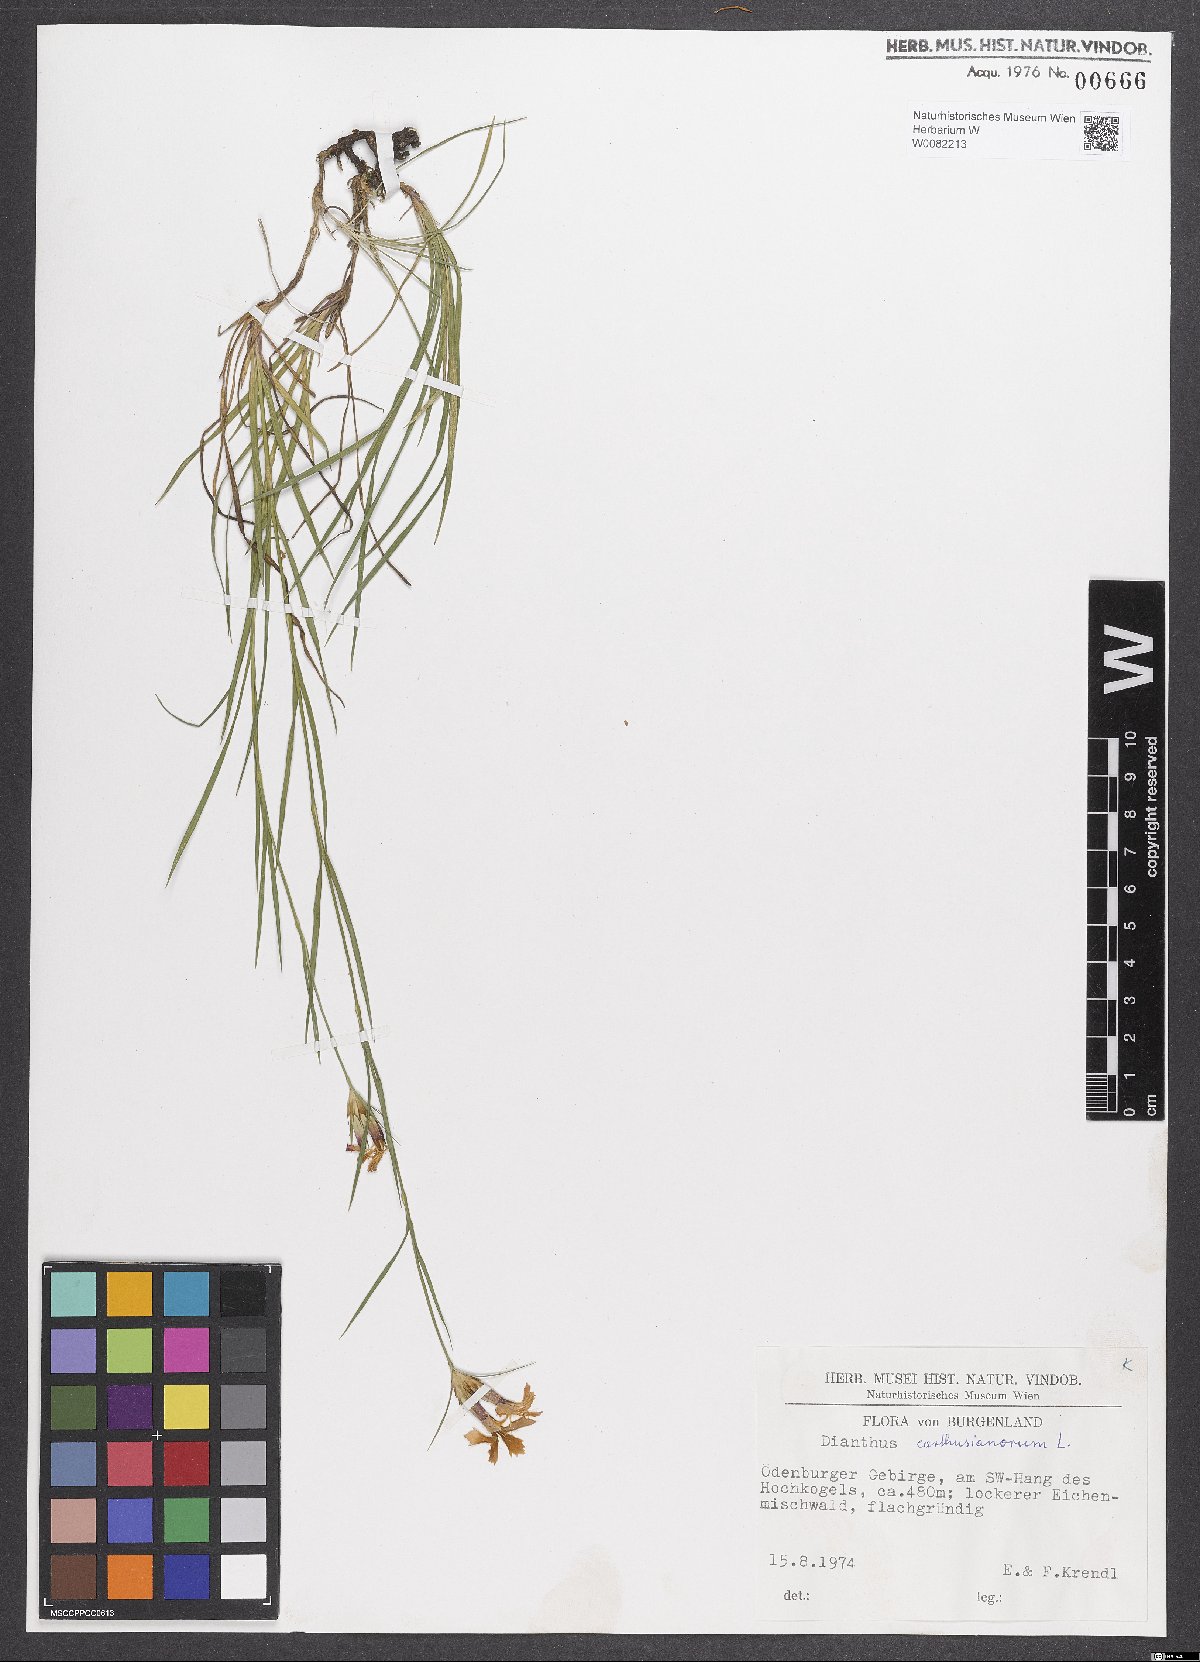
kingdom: Plantae
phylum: Tracheophyta
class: Magnoliopsida
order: Caryophyllales
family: Caryophyllaceae
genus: Dianthus
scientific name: Dianthus carthusianorum
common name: Carthusian pink
